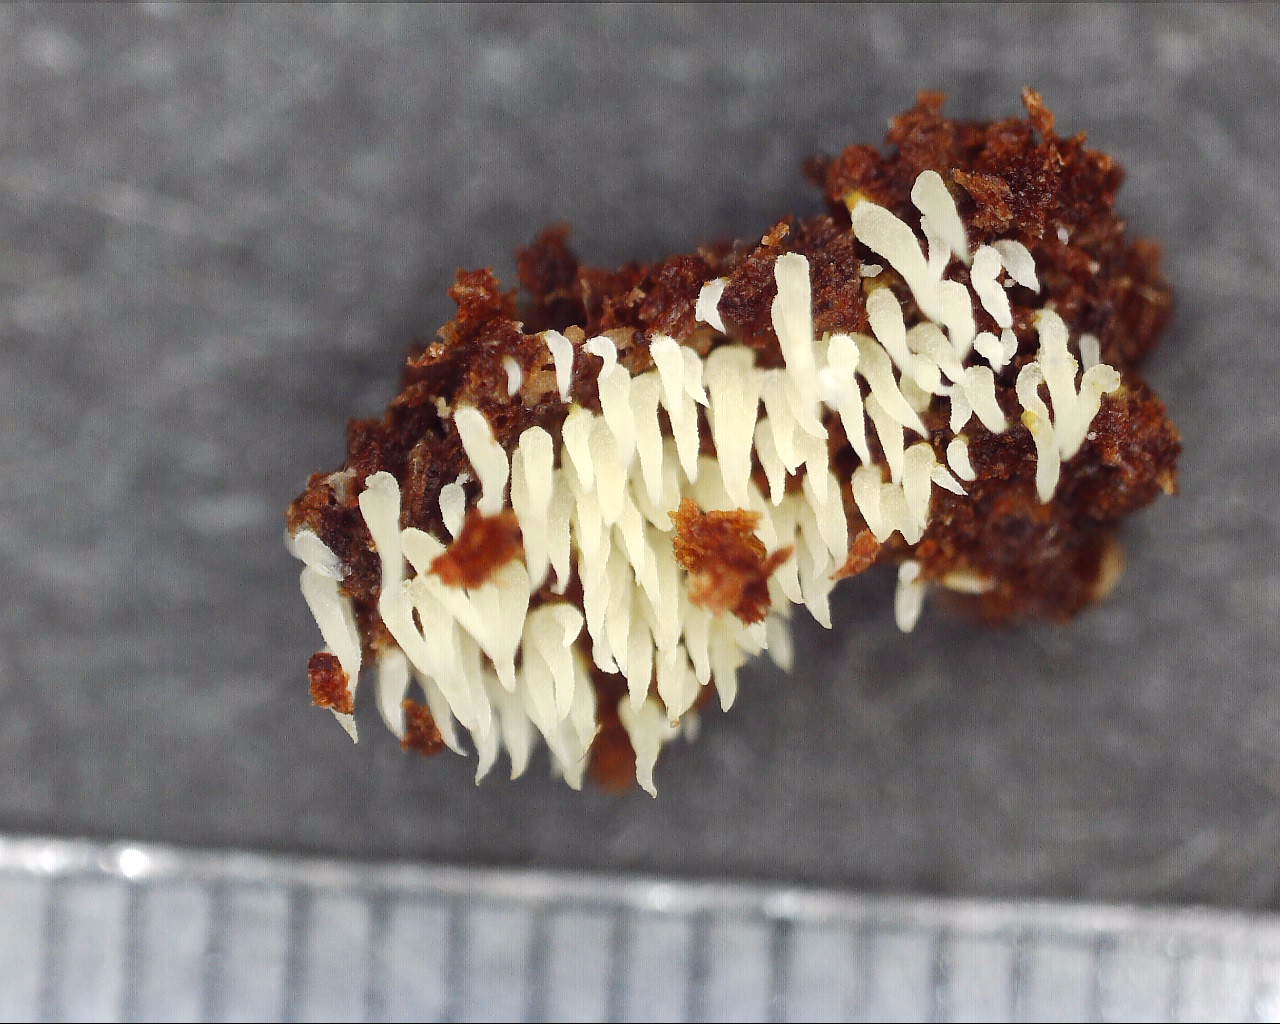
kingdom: Fungi
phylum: Basidiomycota
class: Agaricomycetes
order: Agaricales
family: Clavariaceae
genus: Mucronella
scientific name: Mucronella calva
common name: hvid hængepig
